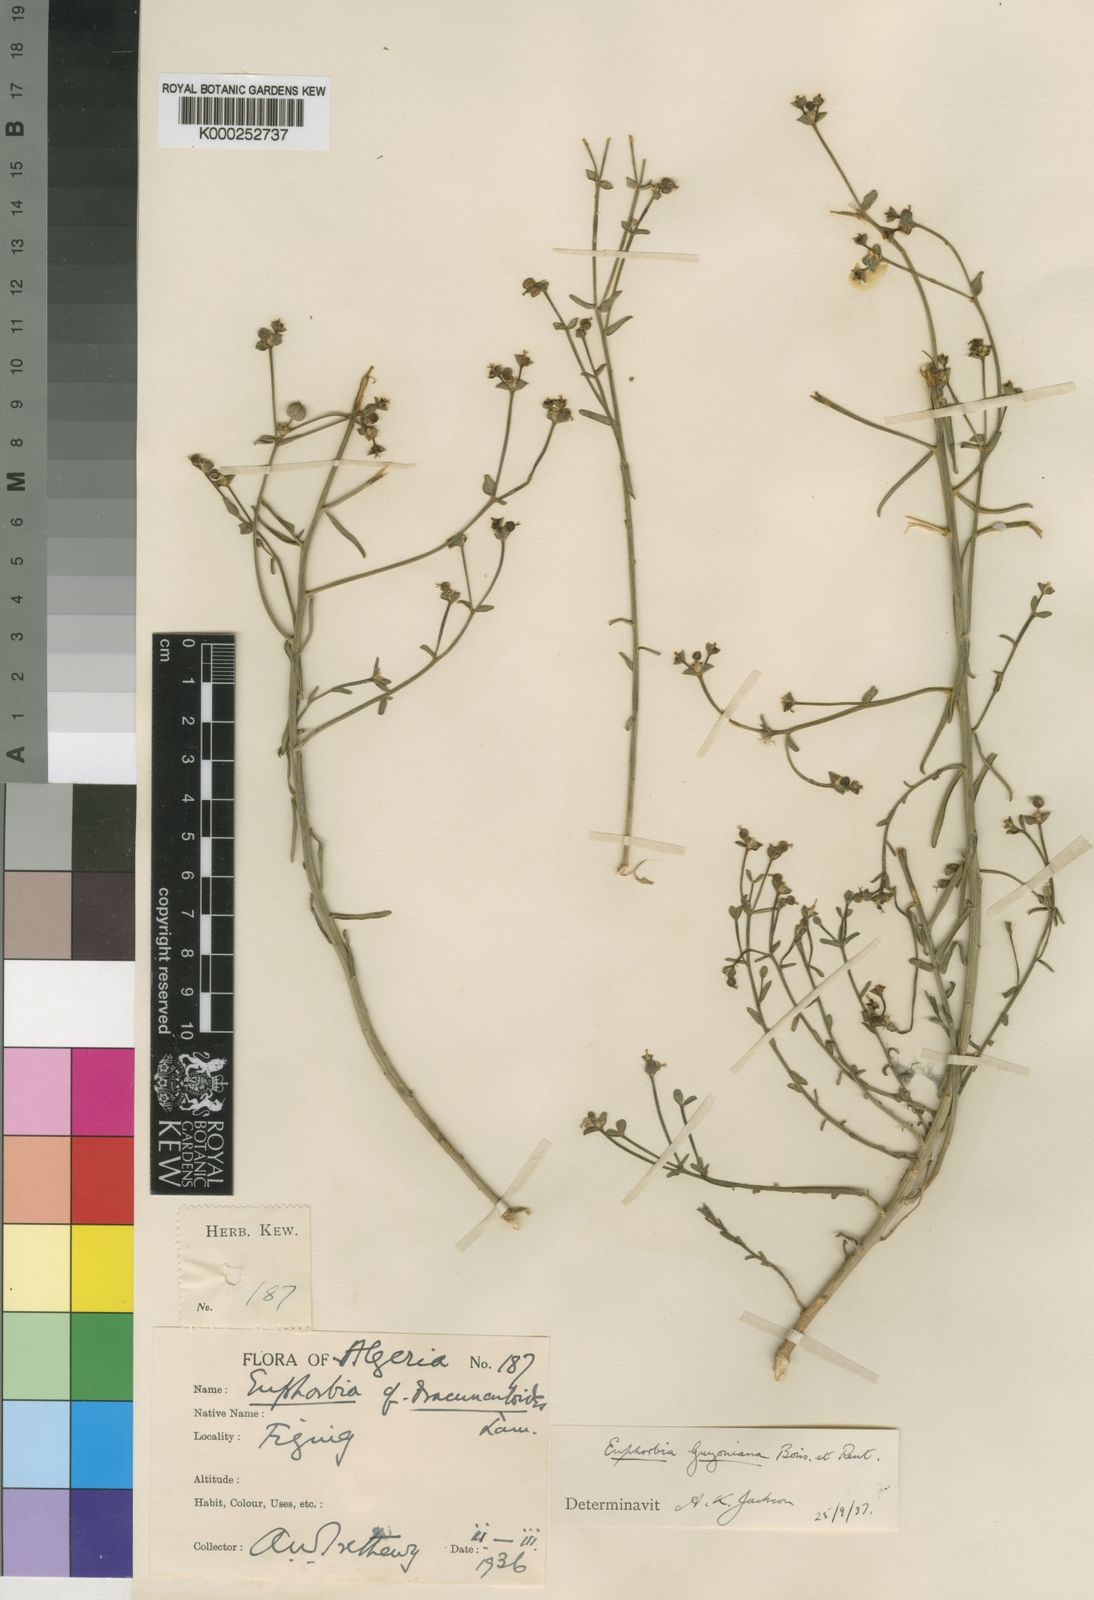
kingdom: Plantae
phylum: Tracheophyta
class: Magnoliopsida
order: Malpighiales
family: Euphorbiaceae
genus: Euphorbia
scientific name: Euphorbia guyoniana
